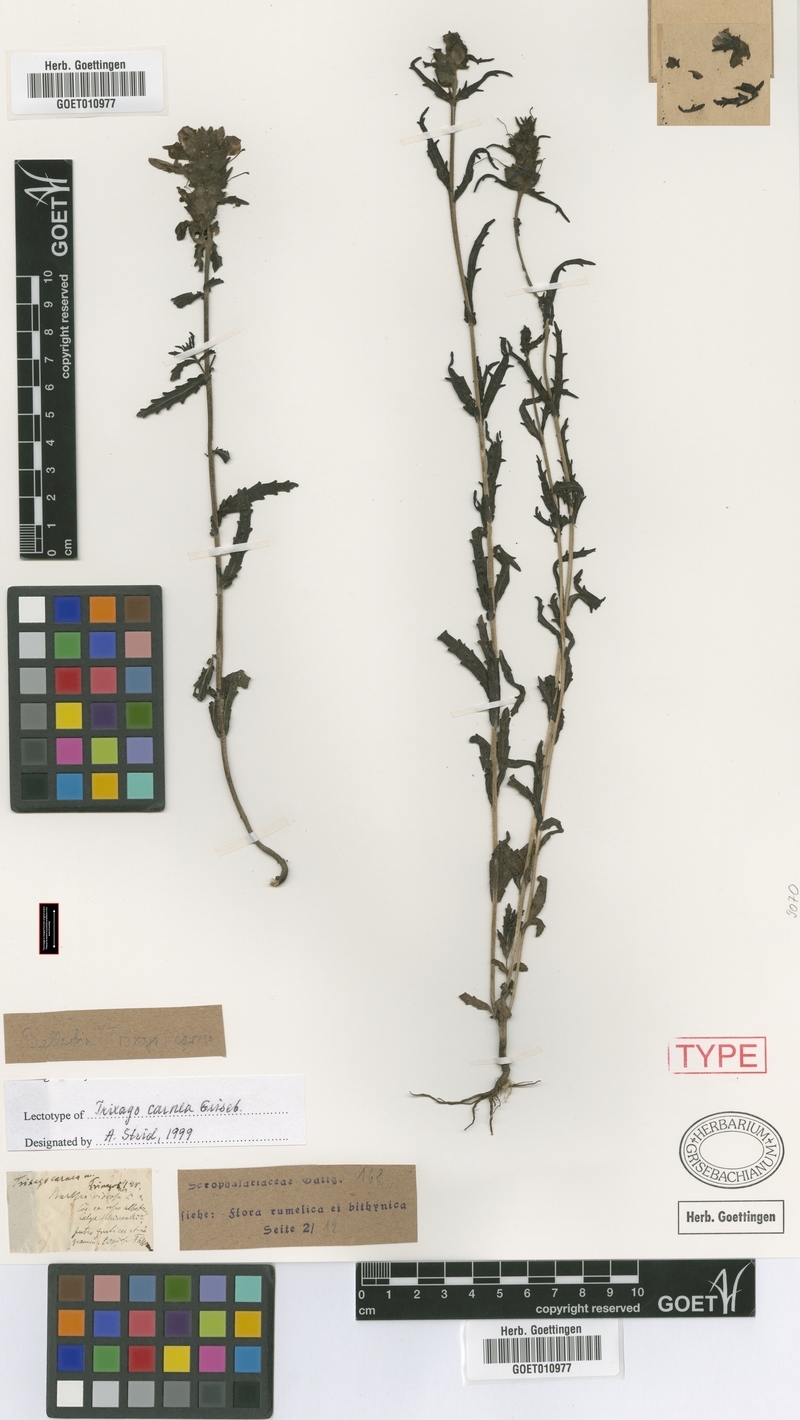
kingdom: Plantae
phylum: Tracheophyta
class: Magnoliopsida
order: Lamiales
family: Orobanchaceae
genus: Bellardia
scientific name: Bellardia trixago
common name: Mediterranean lineseed
